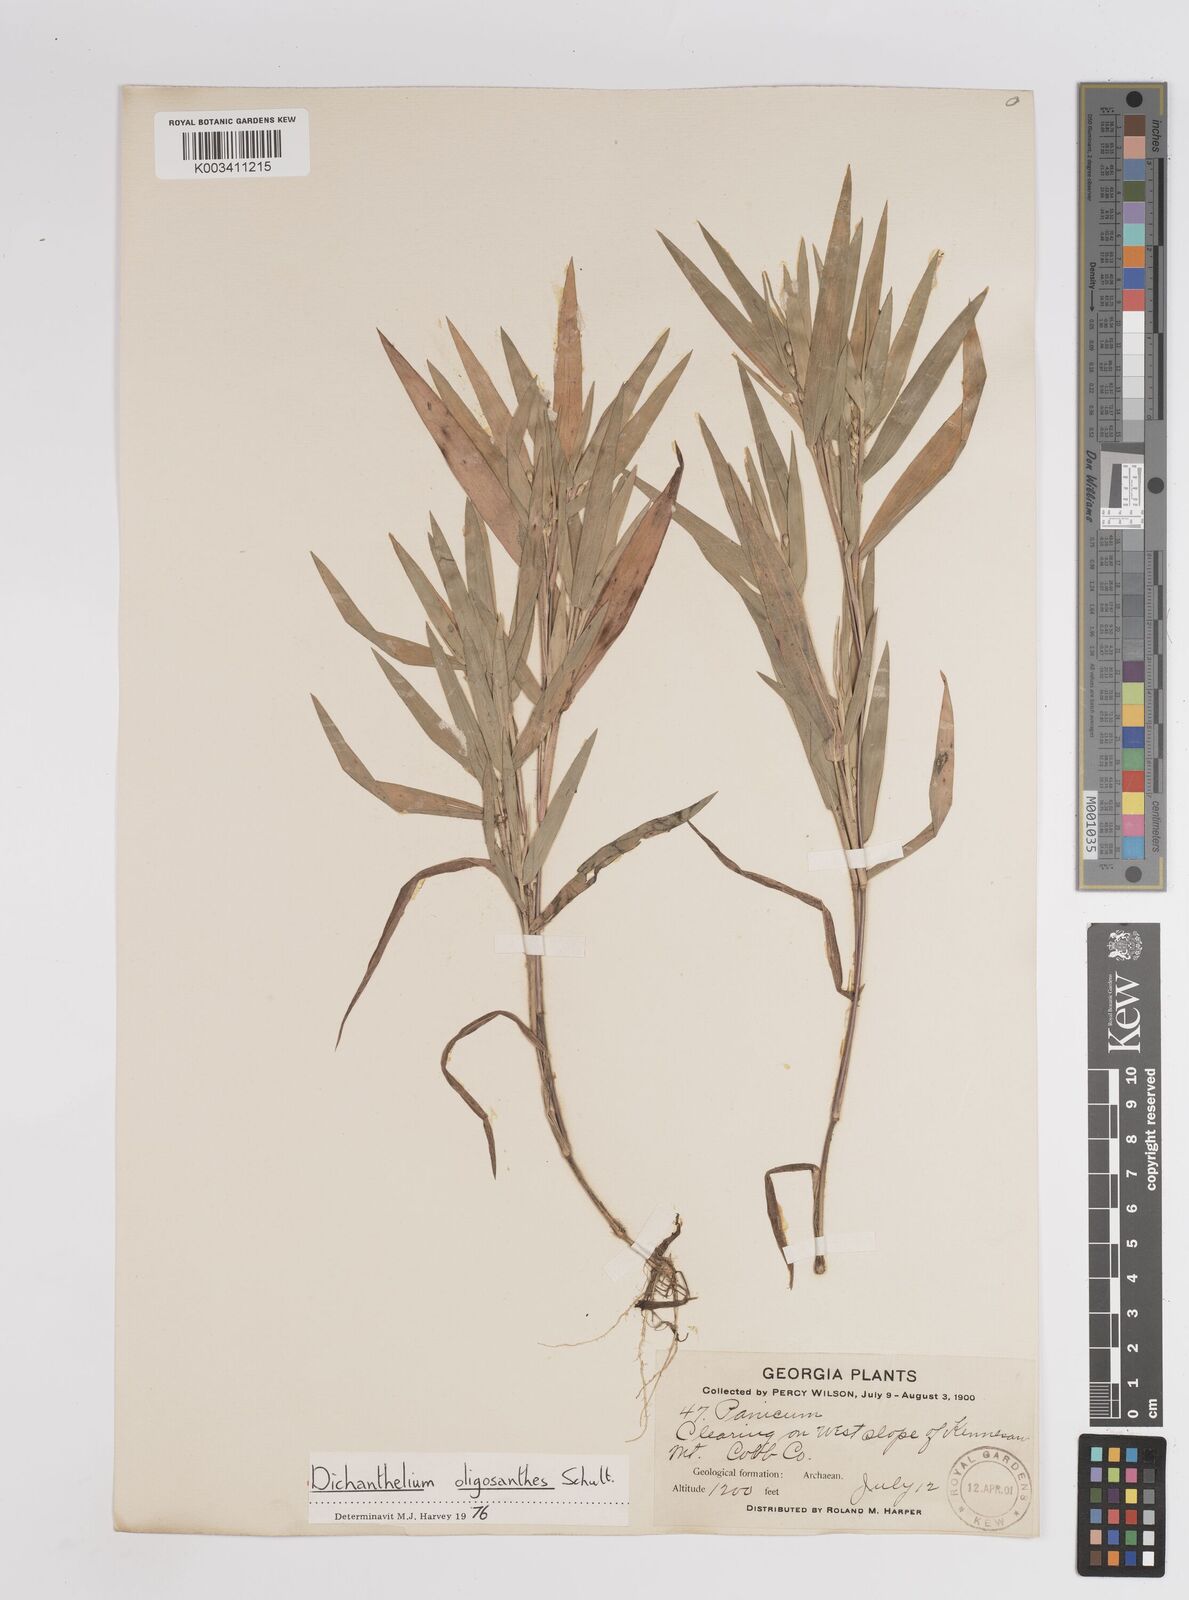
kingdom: Plantae
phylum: Tracheophyta
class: Liliopsida
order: Poales
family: Poaceae
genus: Dichanthelium
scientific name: Dichanthelium oligosanthes
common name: Few-anther obscuregrass
